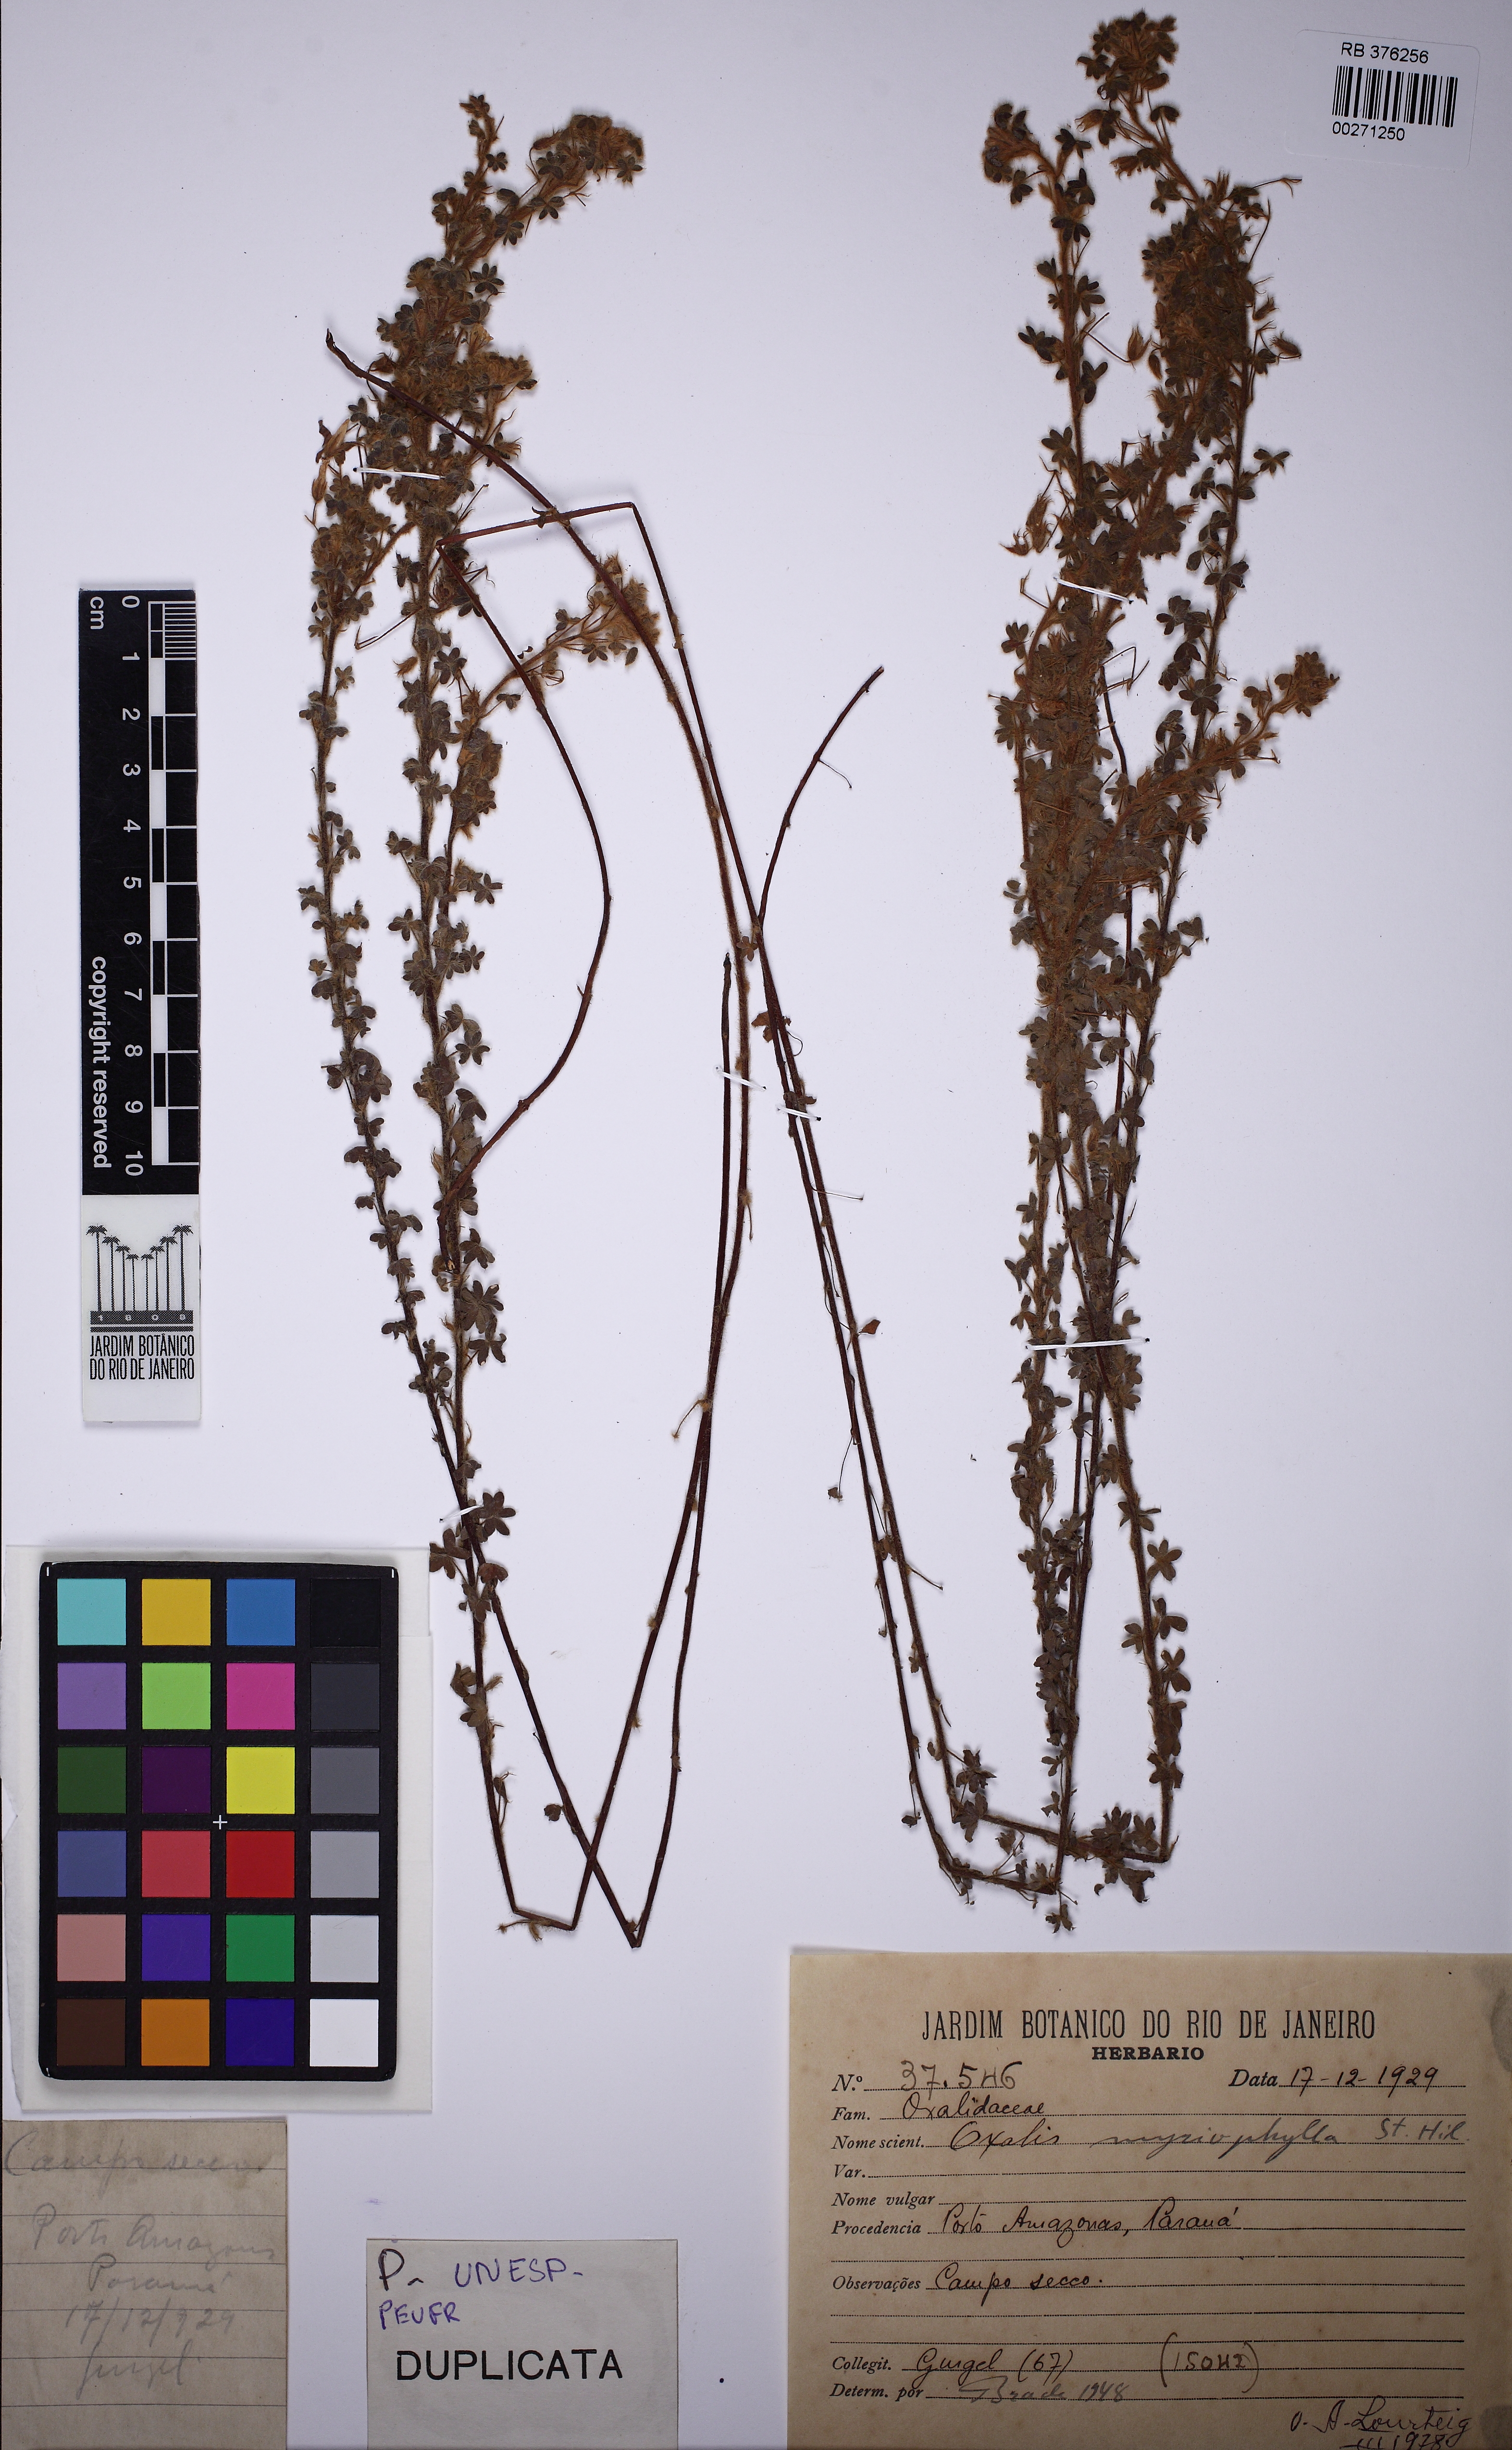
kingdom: Plantae
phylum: Tracheophyta
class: Magnoliopsida
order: Oxalidales
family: Oxalidaceae
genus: Oxalis
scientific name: Oxalis physocalyx
